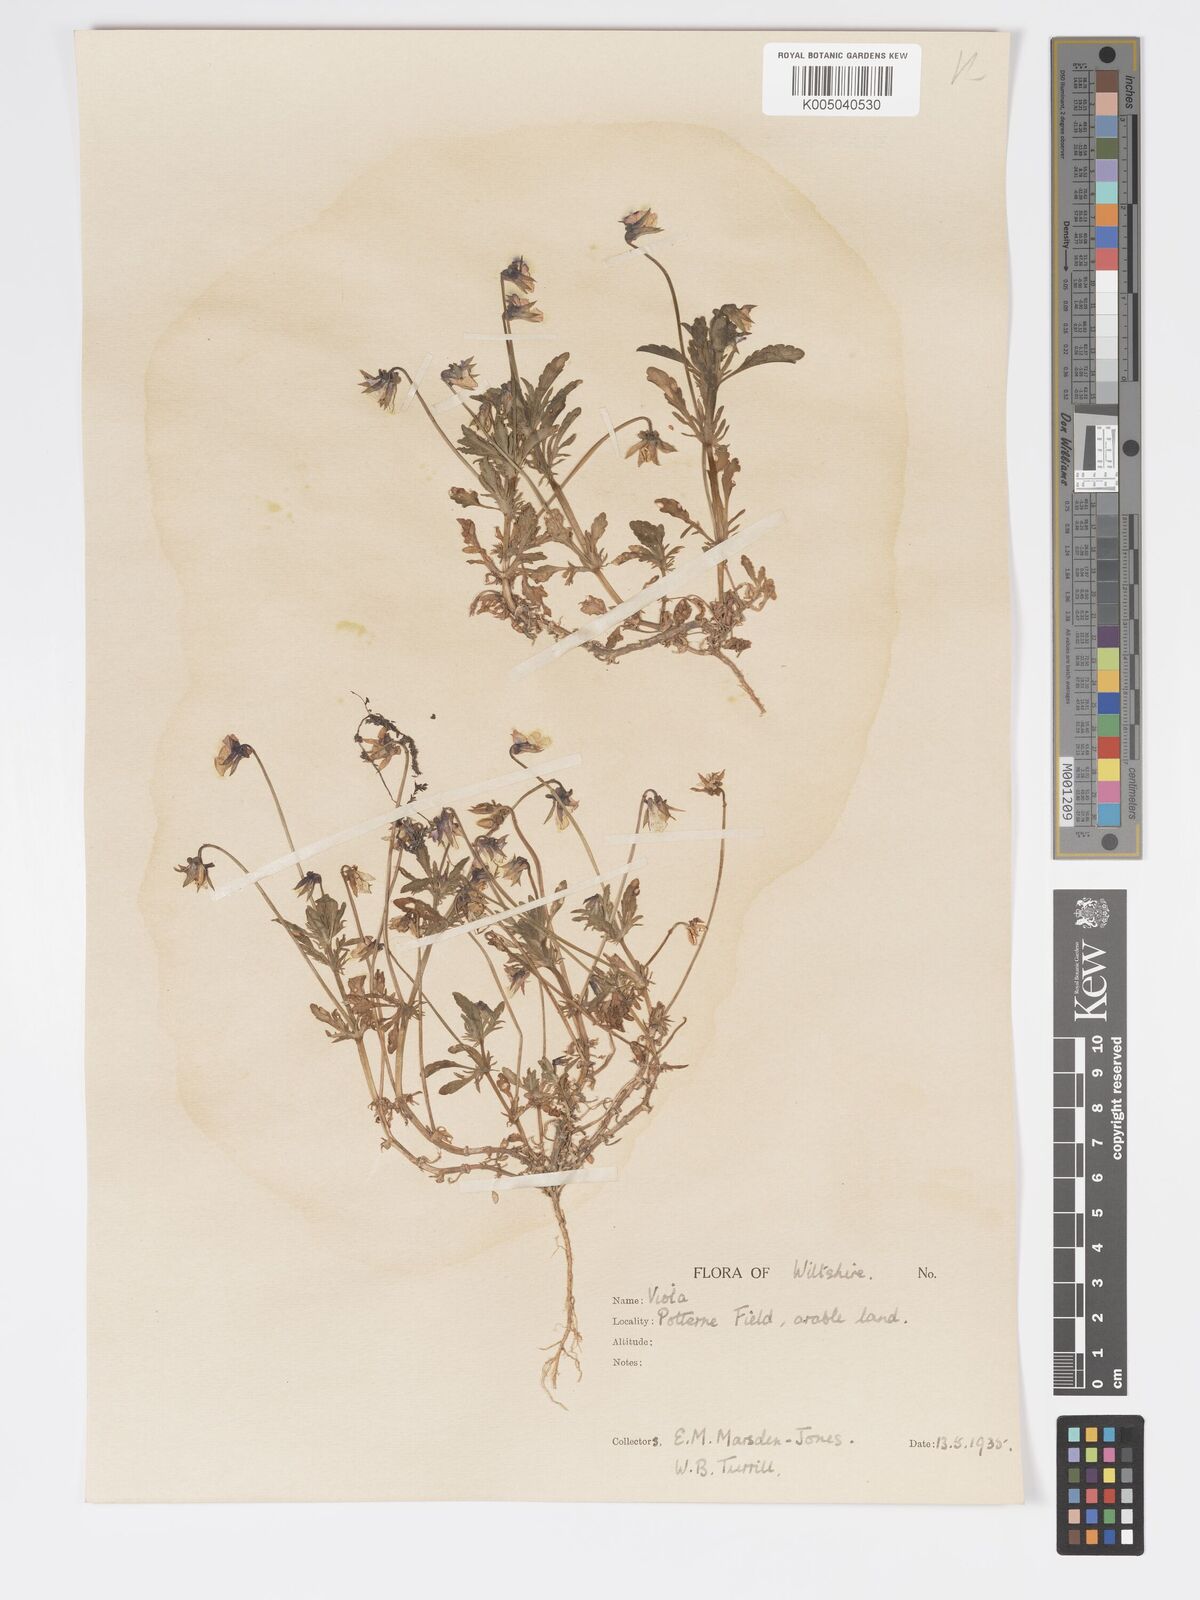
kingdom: Plantae
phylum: Tracheophyta
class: Magnoliopsida
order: Malpighiales
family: Violaceae
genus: Viola
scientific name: Viola
